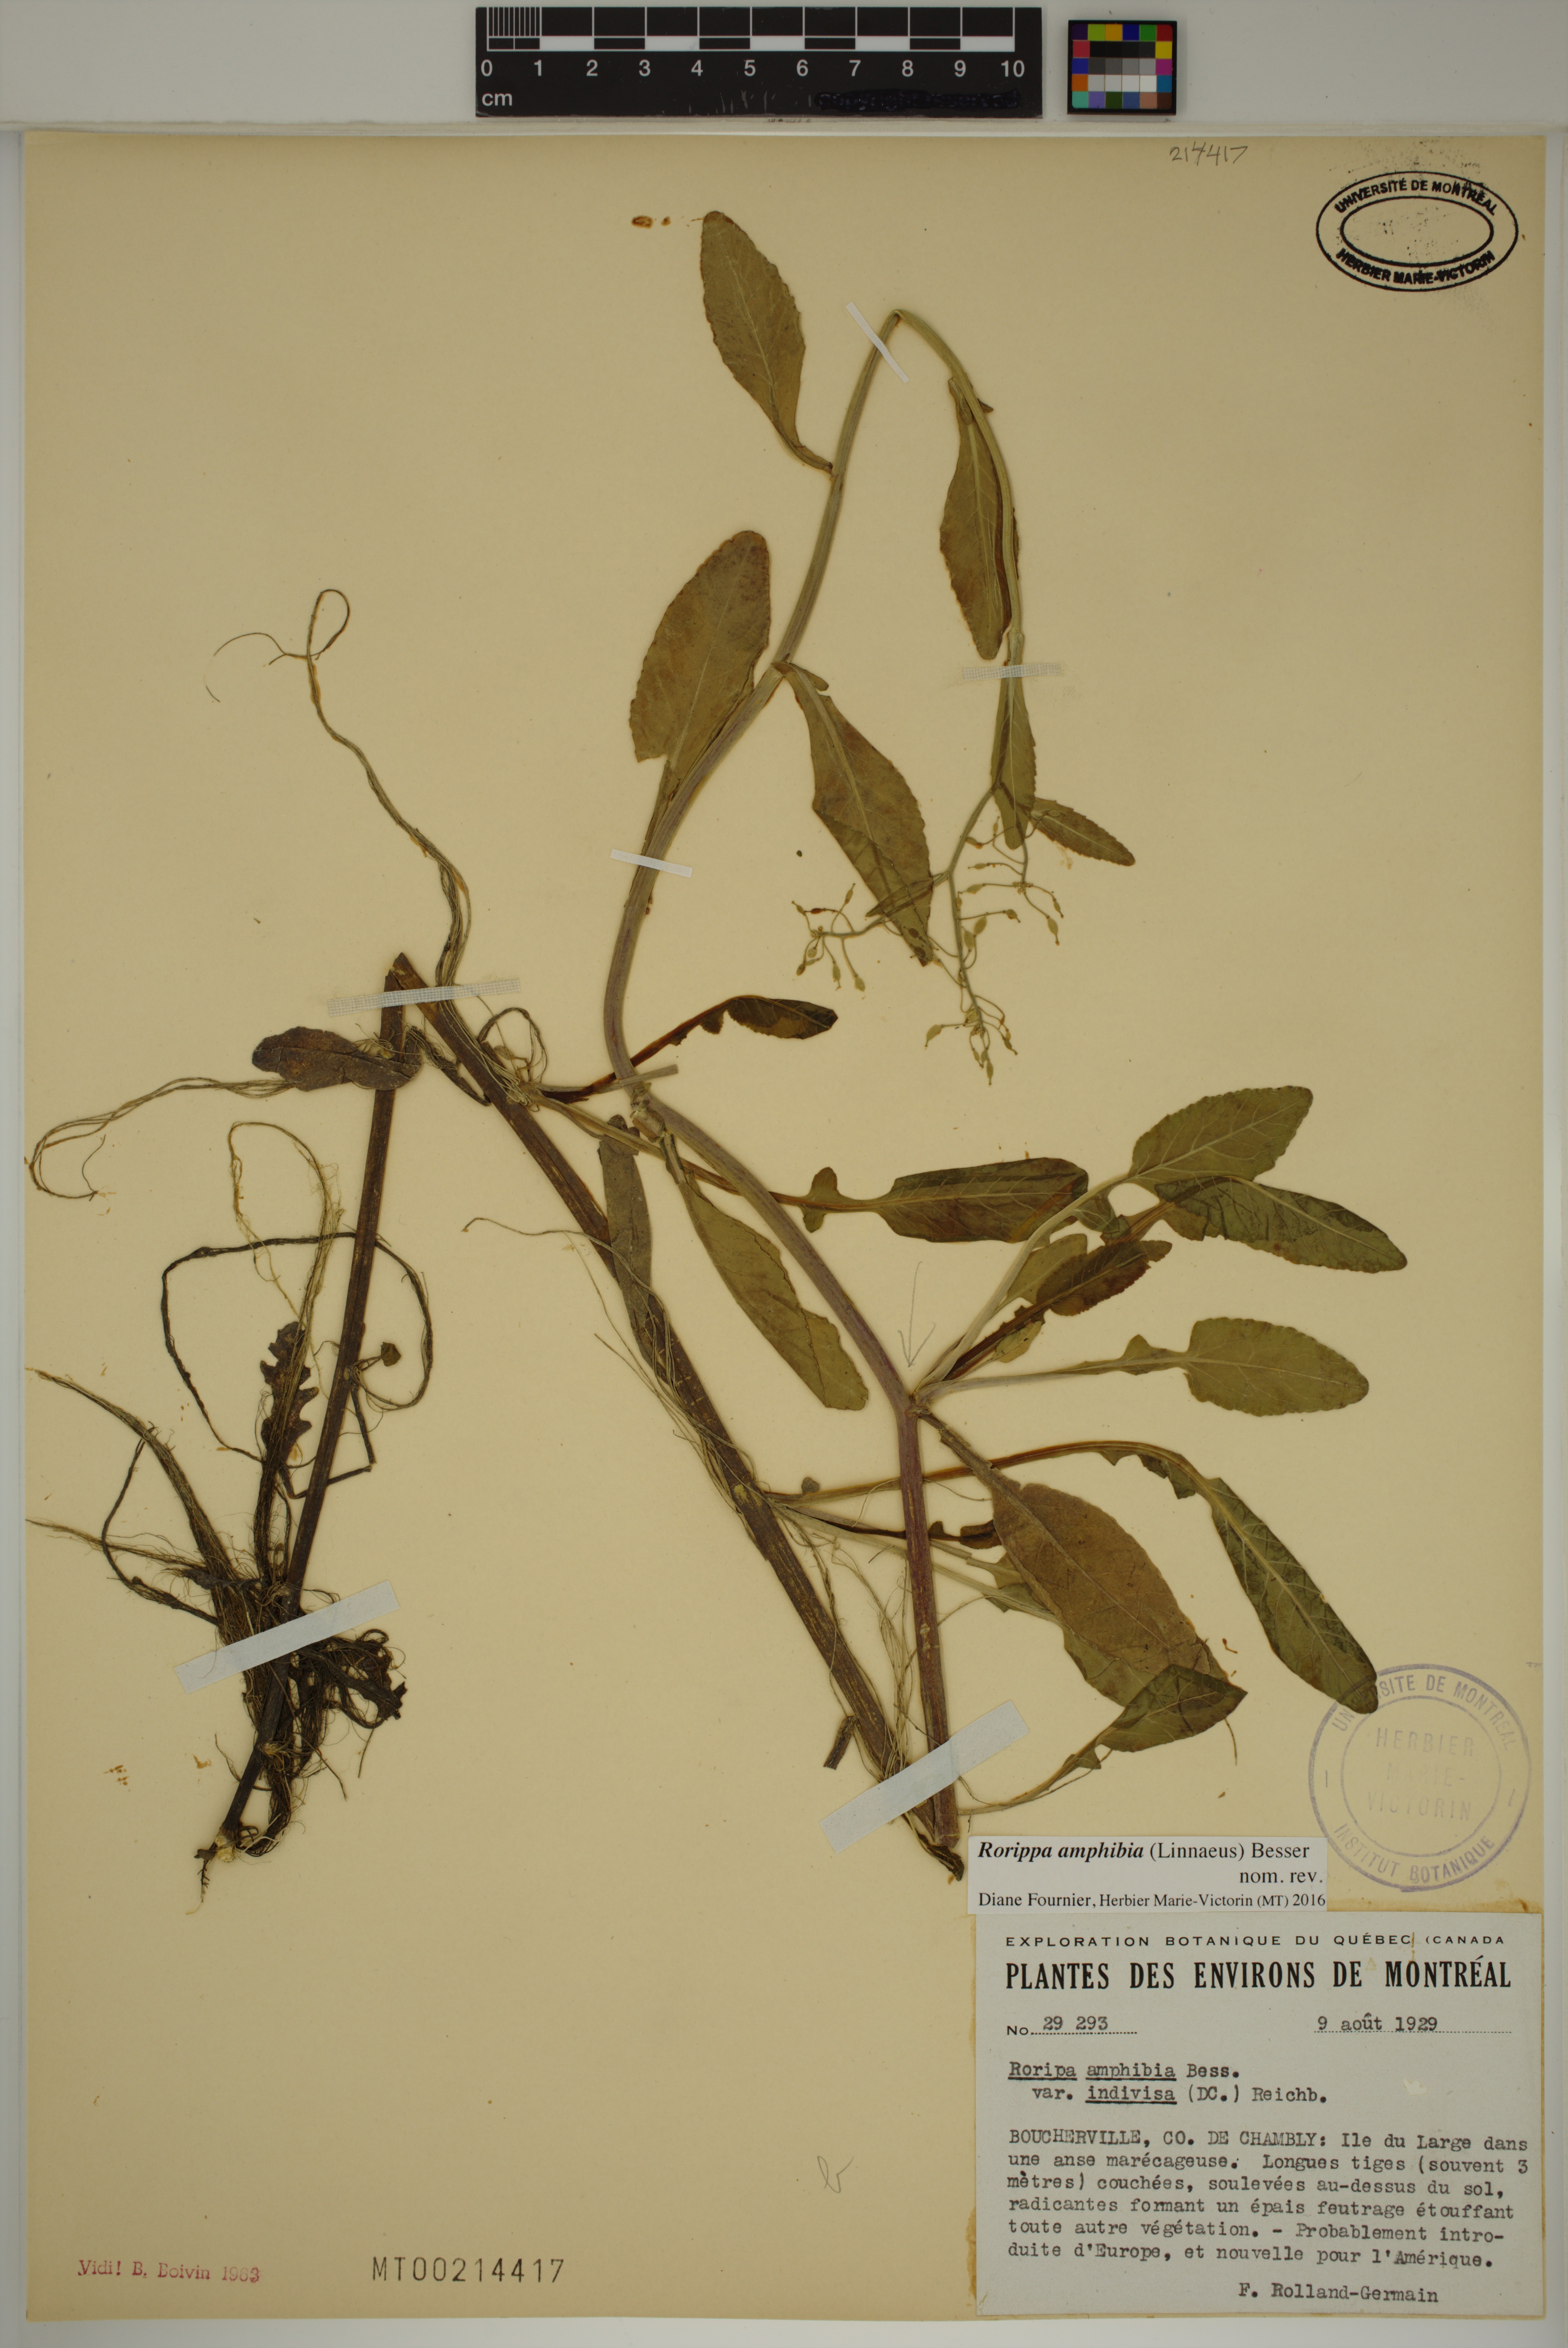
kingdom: Plantae
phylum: Tracheophyta
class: Magnoliopsida
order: Brassicales
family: Brassicaceae
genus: Rorippa
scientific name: Rorippa amphibia
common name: Great yellow-cress
